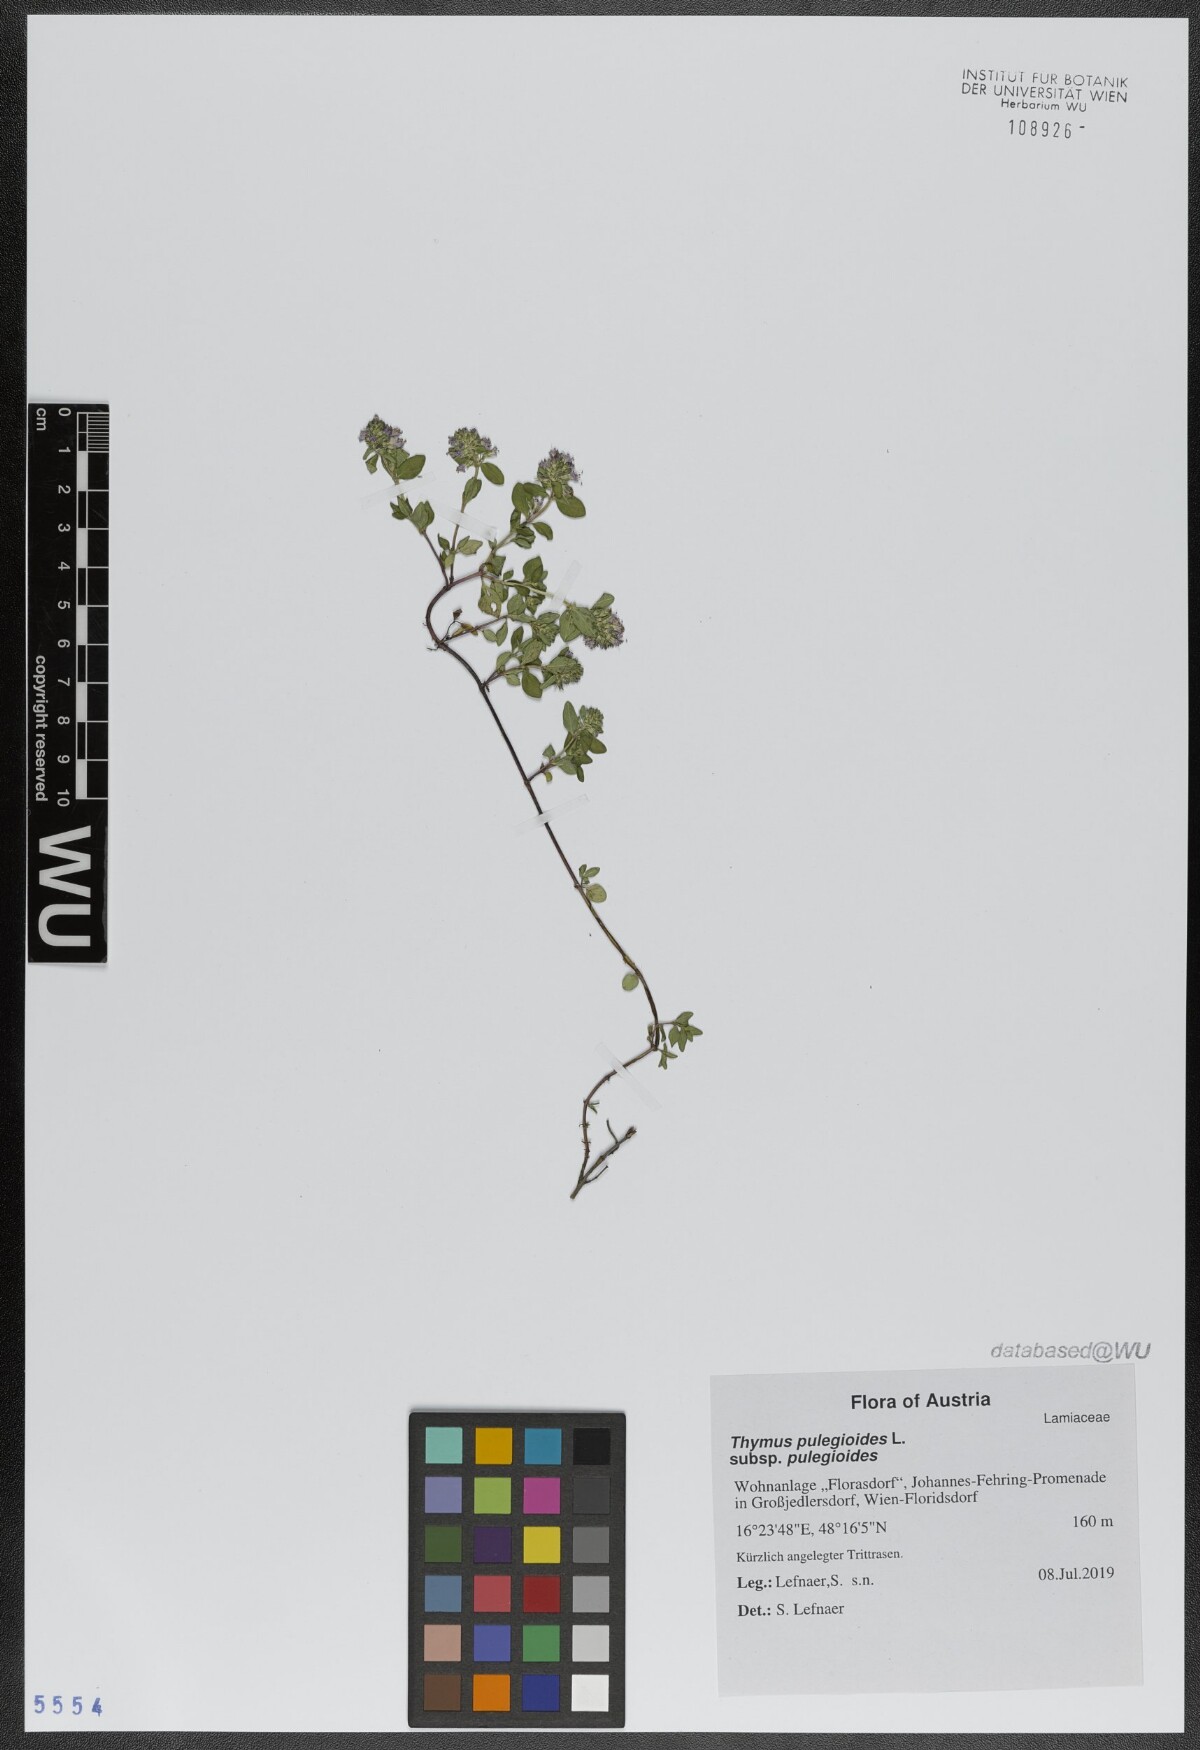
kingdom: Plantae
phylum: Tracheophyta
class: Magnoliopsida
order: Lamiales
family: Lamiaceae
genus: Thymus
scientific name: Thymus pulegioides
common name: Large thyme
